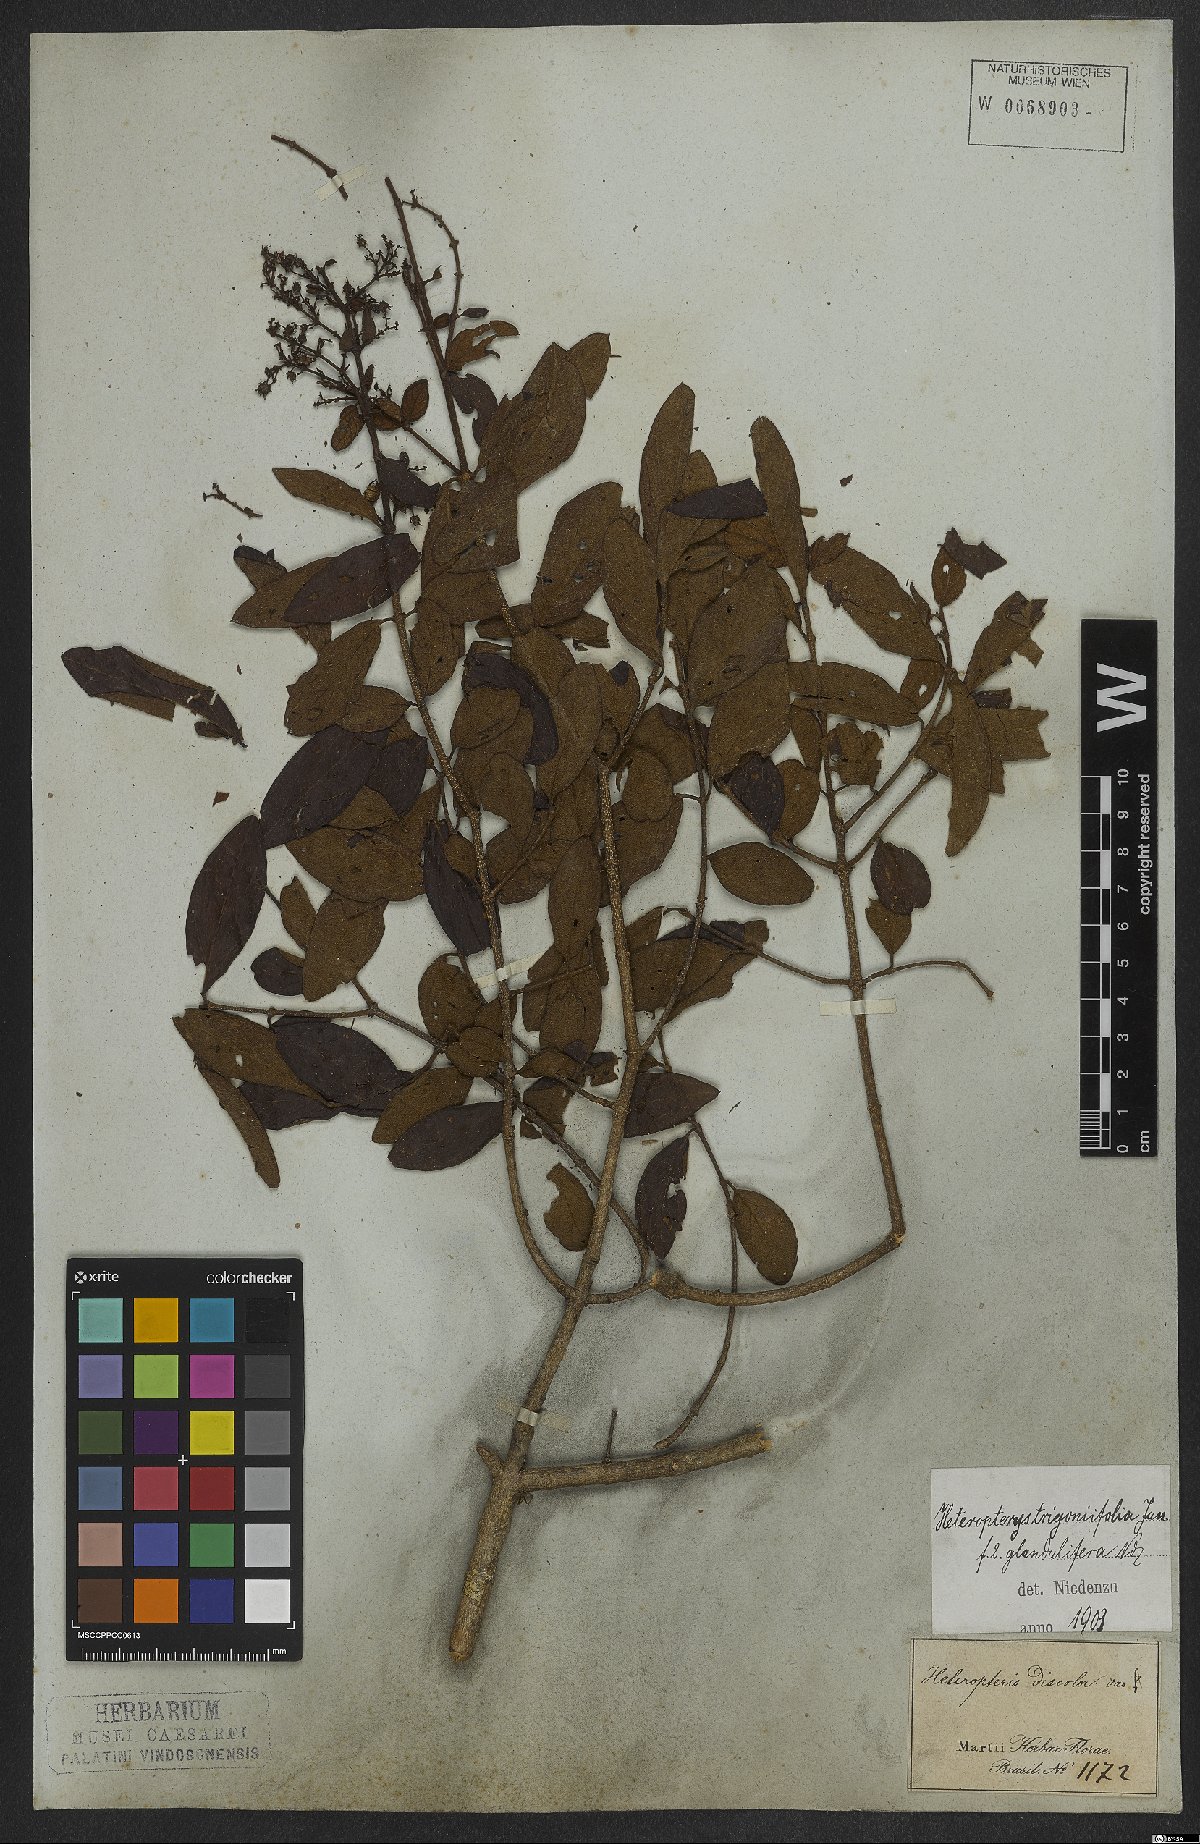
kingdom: Plantae
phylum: Tracheophyta
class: Magnoliopsida
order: Malpighiales
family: Malpighiaceae
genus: Heteropterys
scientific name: Heteropterys trigoniifolia
